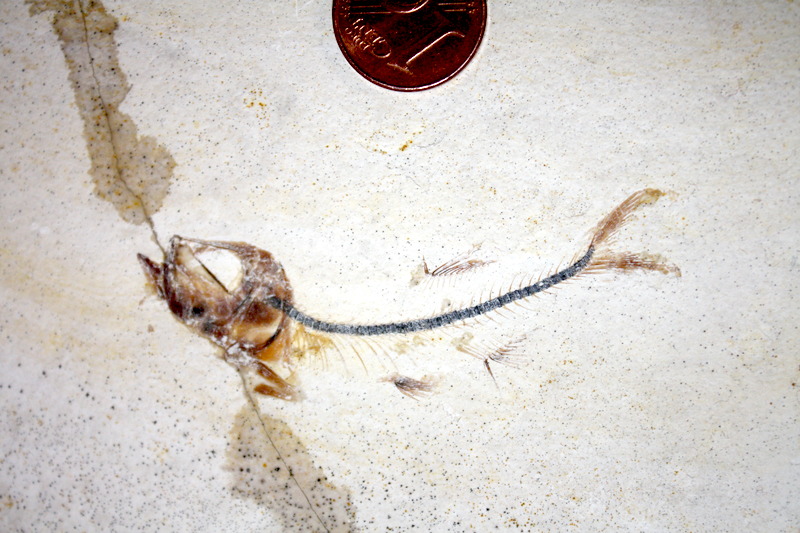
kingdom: Animalia
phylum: Chordata
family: Ascalaboidae
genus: Ebertichthys
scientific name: Ebertichthys ettlingensis
